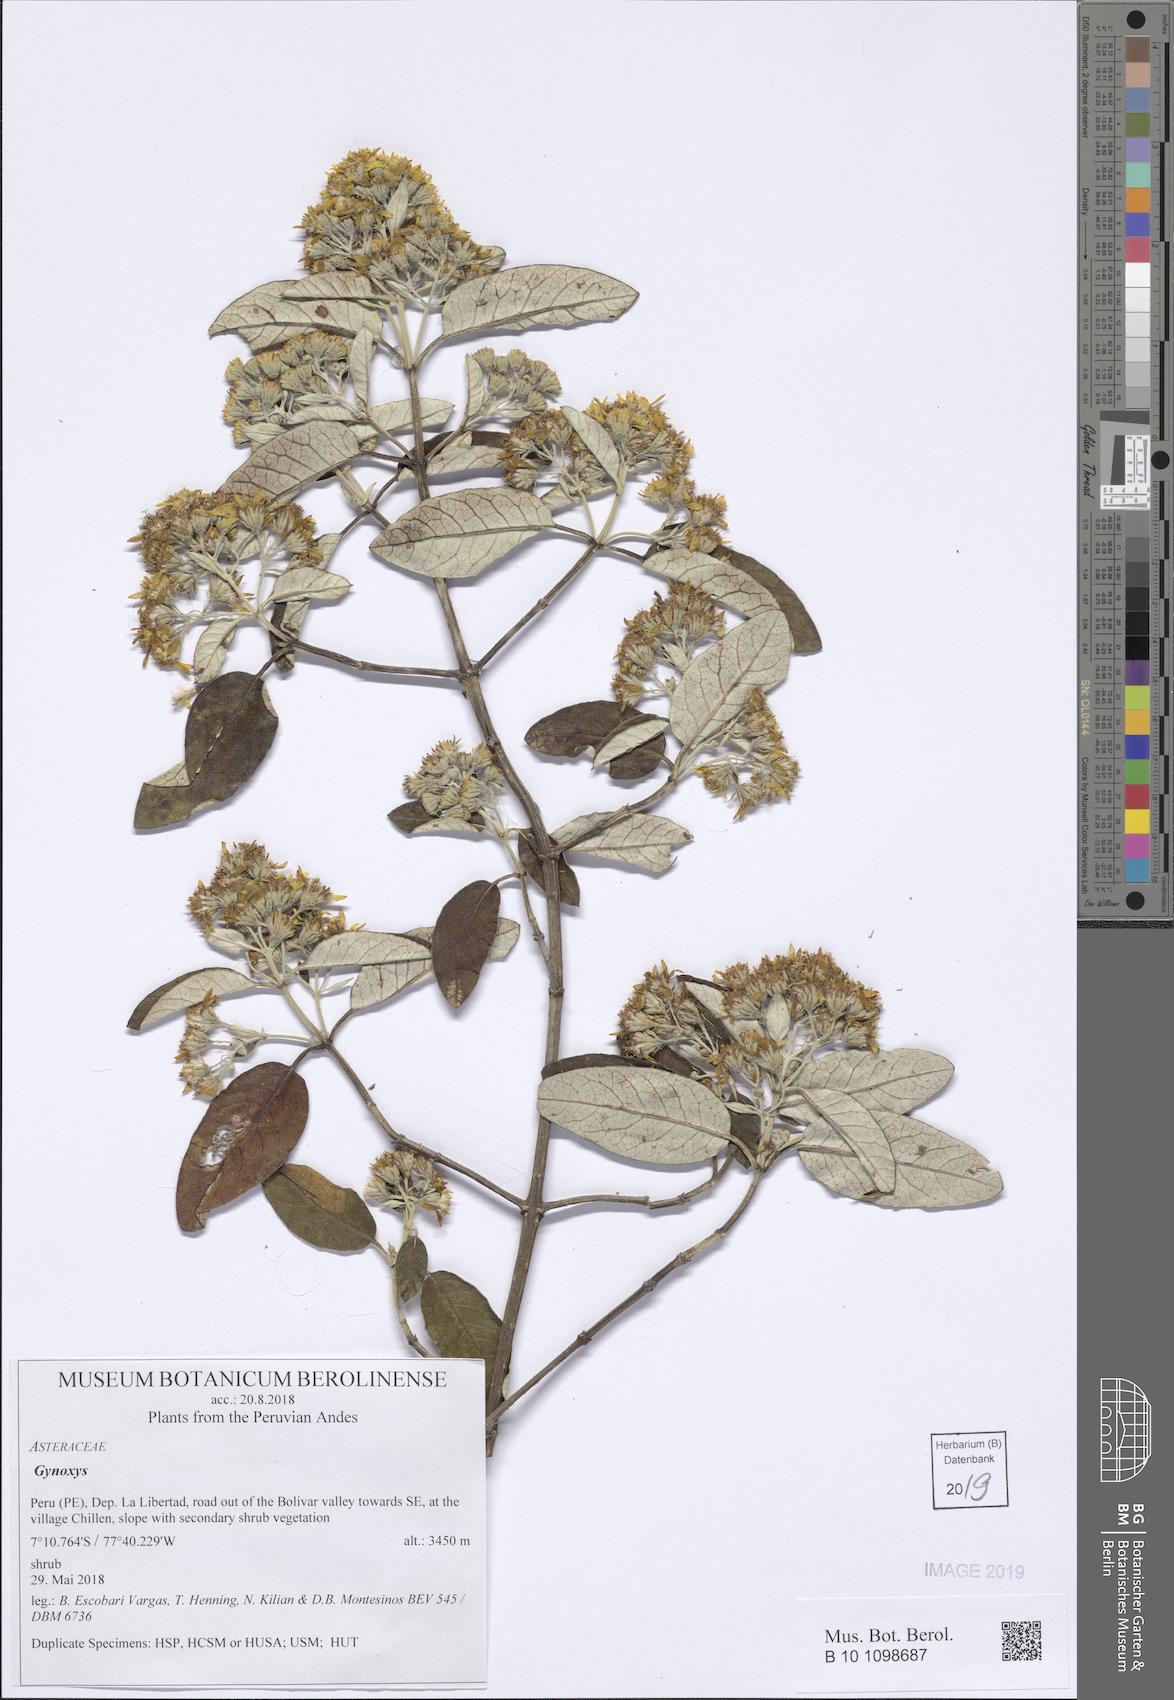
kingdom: Plantae
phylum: Tracheophyta
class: Magnoliopsida
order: Asterales
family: Asteraceae
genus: Gynoxys
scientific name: Gynoxys
